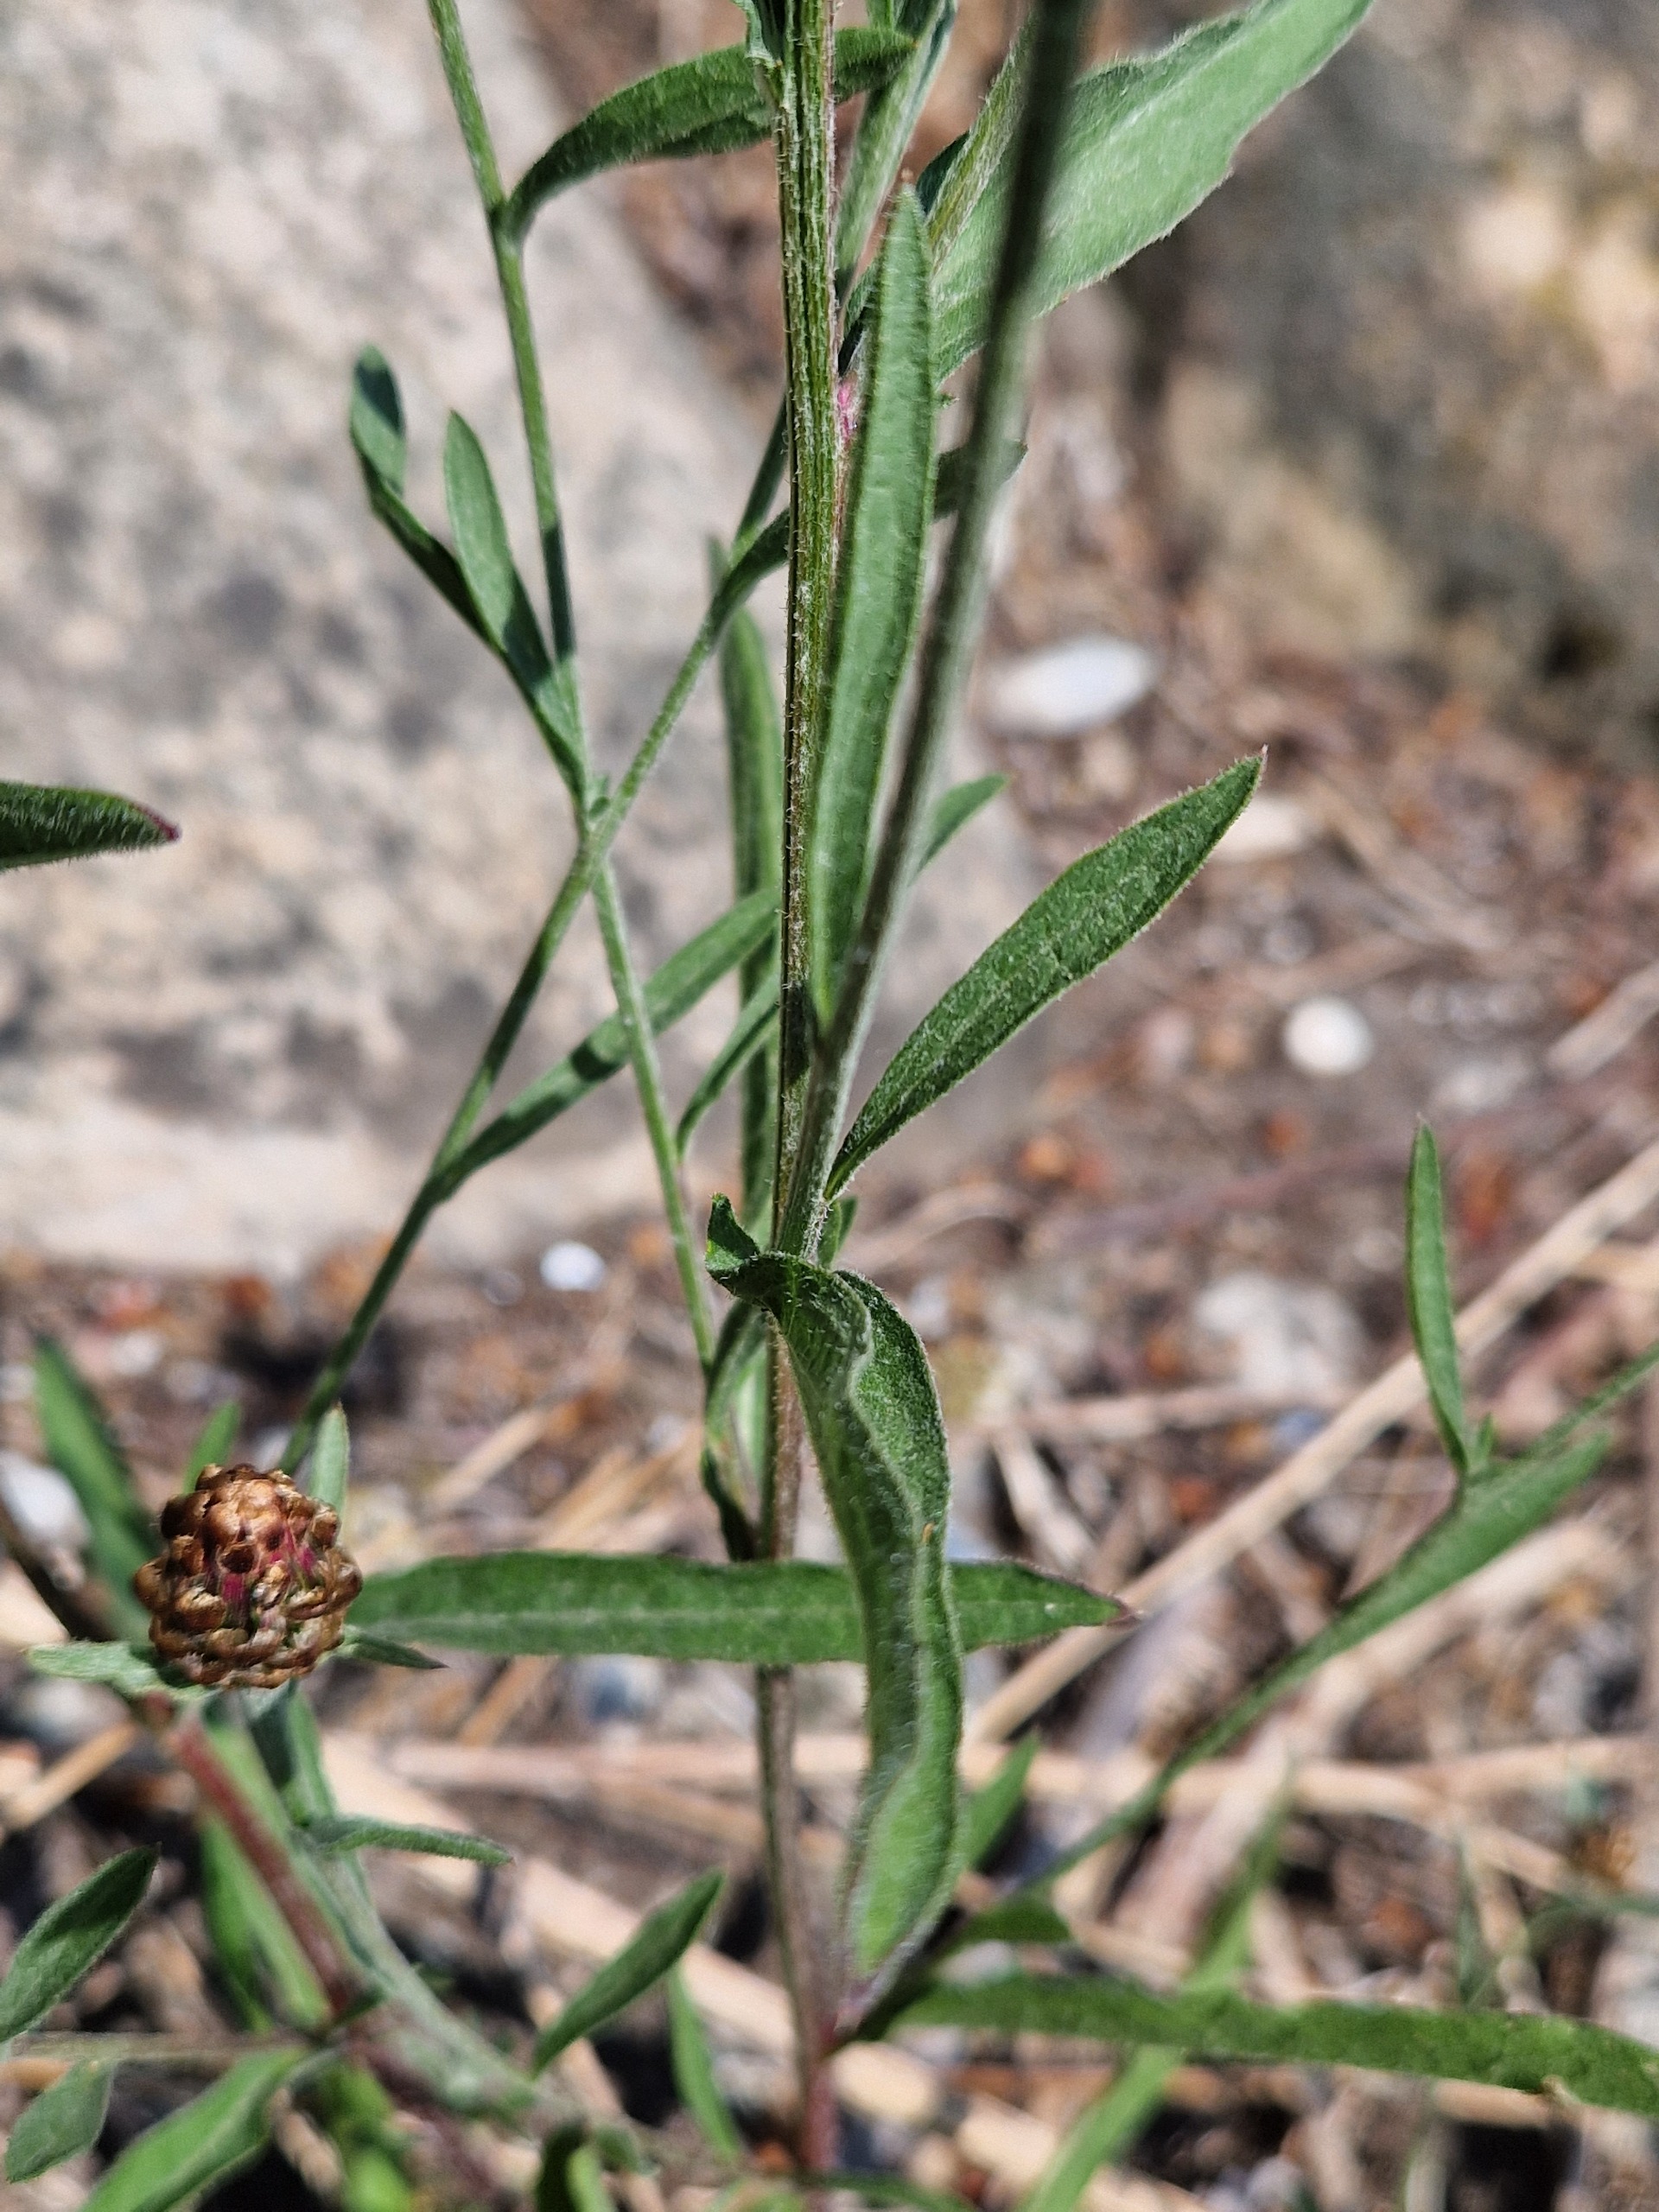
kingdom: Plantae
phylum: Tracheophyta
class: Magnoliopsida
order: Asterales
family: Asteraceae
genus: Centaurea
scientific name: Centaurea jacea
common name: Almindelig knopurt
